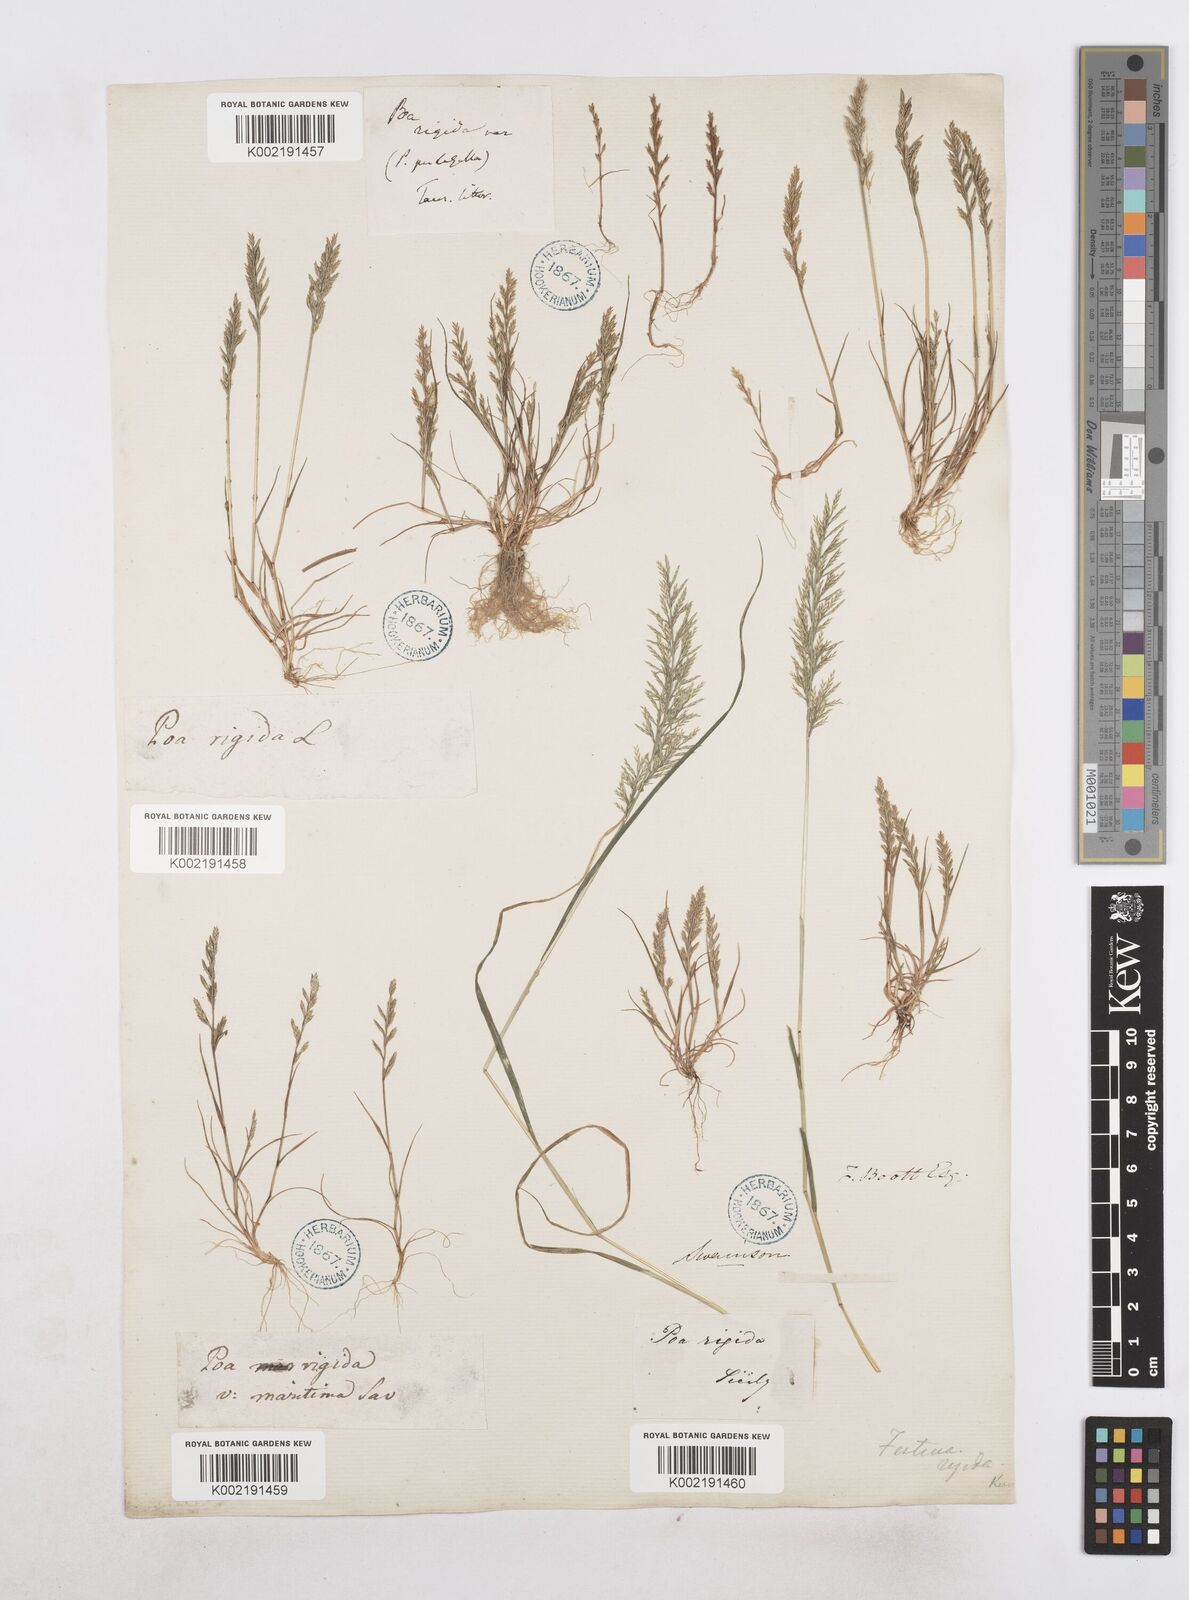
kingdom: Plantae
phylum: Tracheophyta
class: Liliopsida
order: Poales
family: Poaceae
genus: Catapodium
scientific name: Catapodium rigidum
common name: Fern-grass
